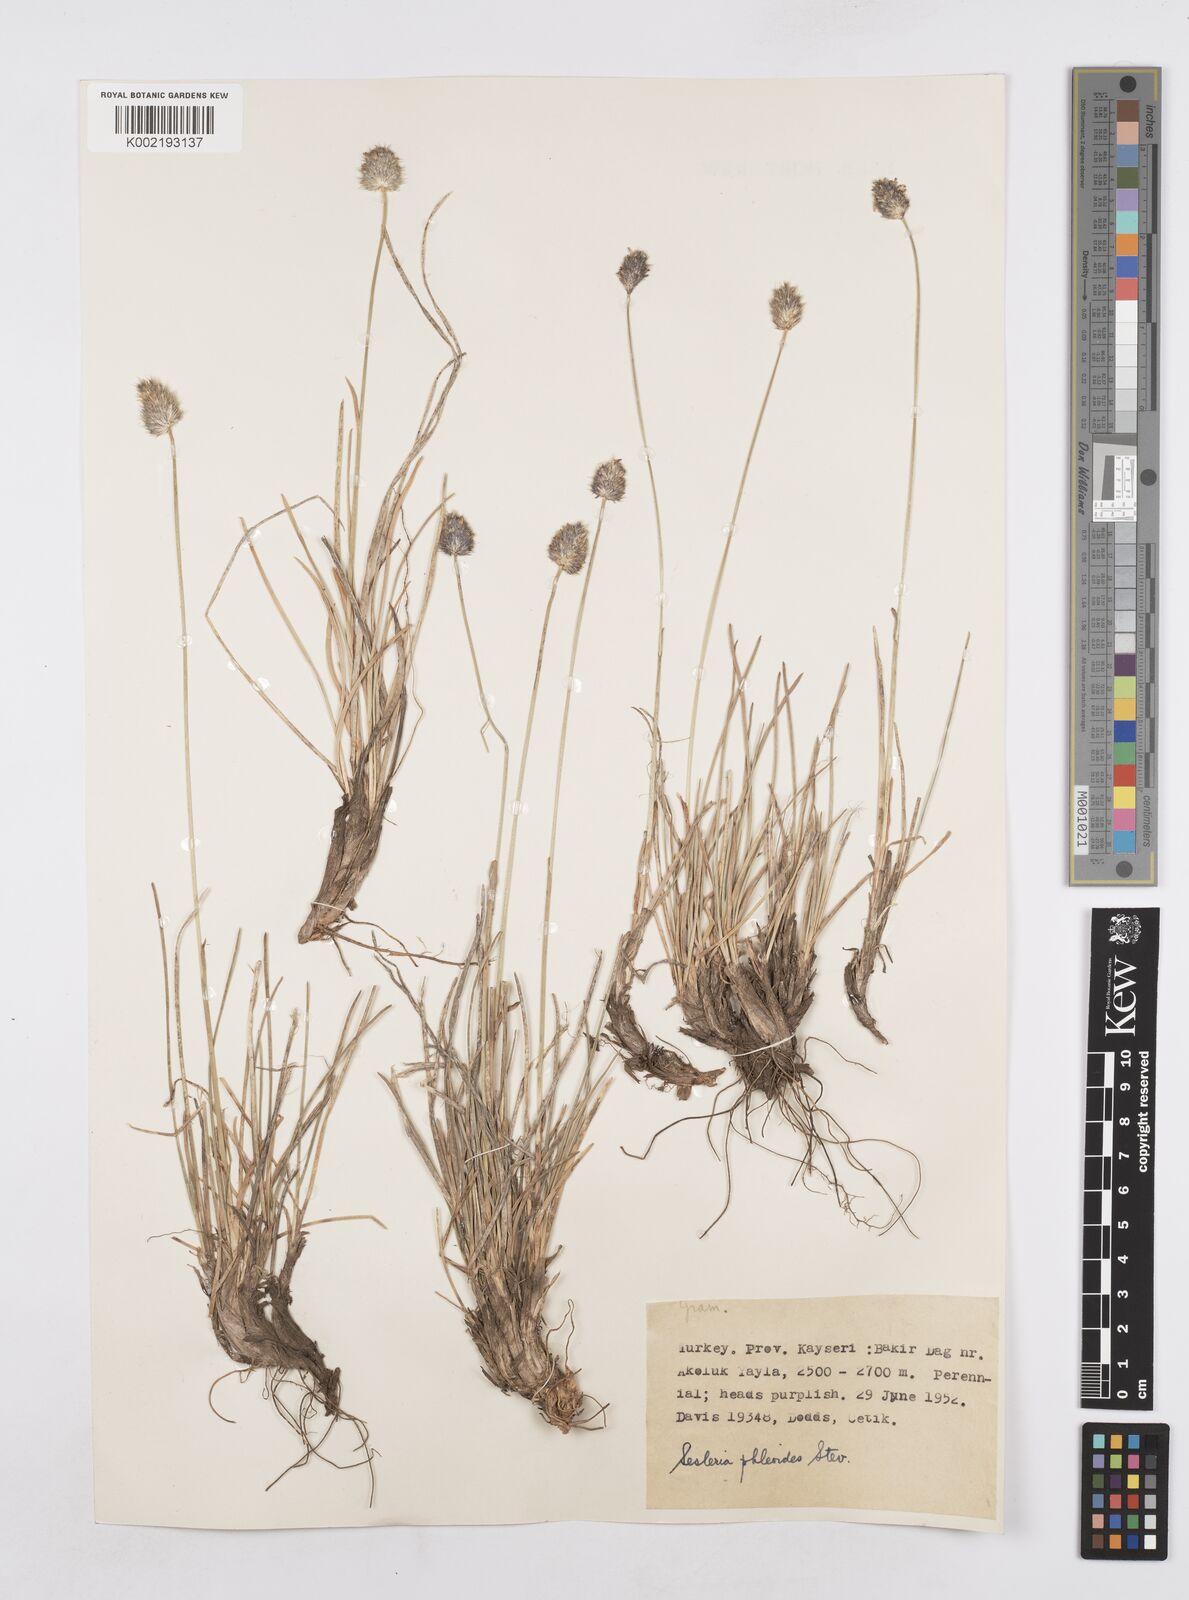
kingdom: Plantae
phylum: Tracheophyta
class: Liliopsida
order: Poales
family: Poaceae
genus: Sesleria
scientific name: Sesleria phleoides
